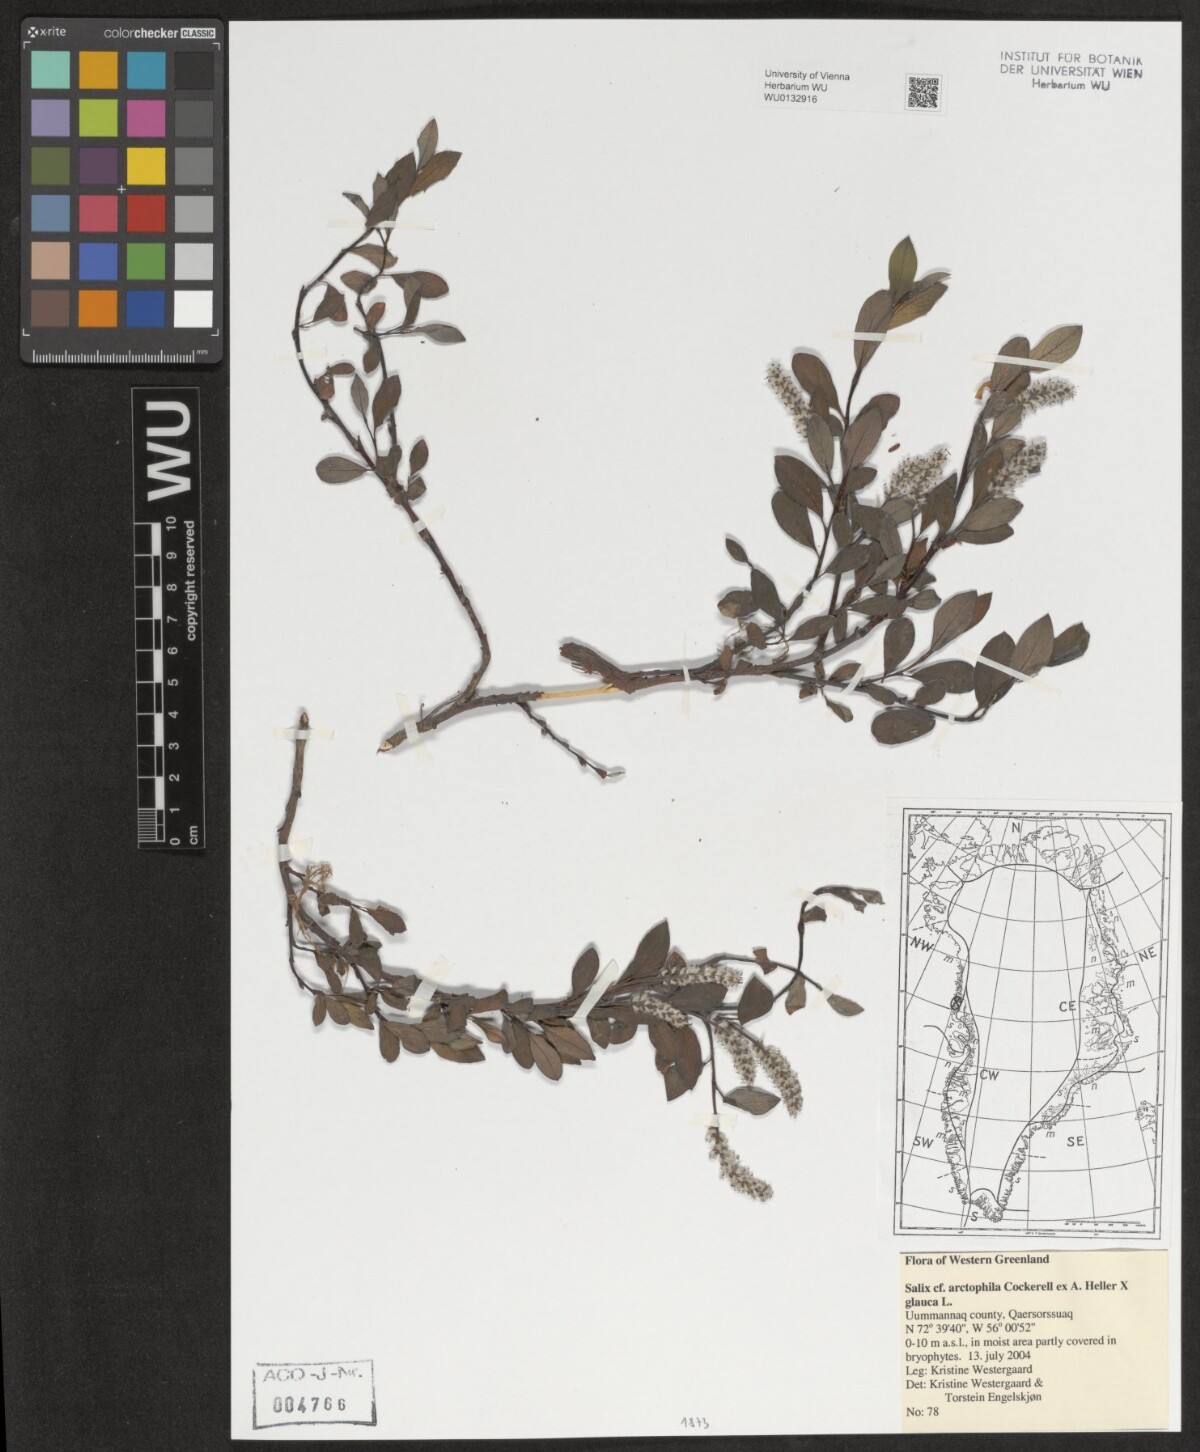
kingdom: Plantae
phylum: Tracheophyta
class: Magnoliopsida
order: Malpighiales
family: Salicaceae
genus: Salix
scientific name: Salix arctophila
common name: Greenland willow
